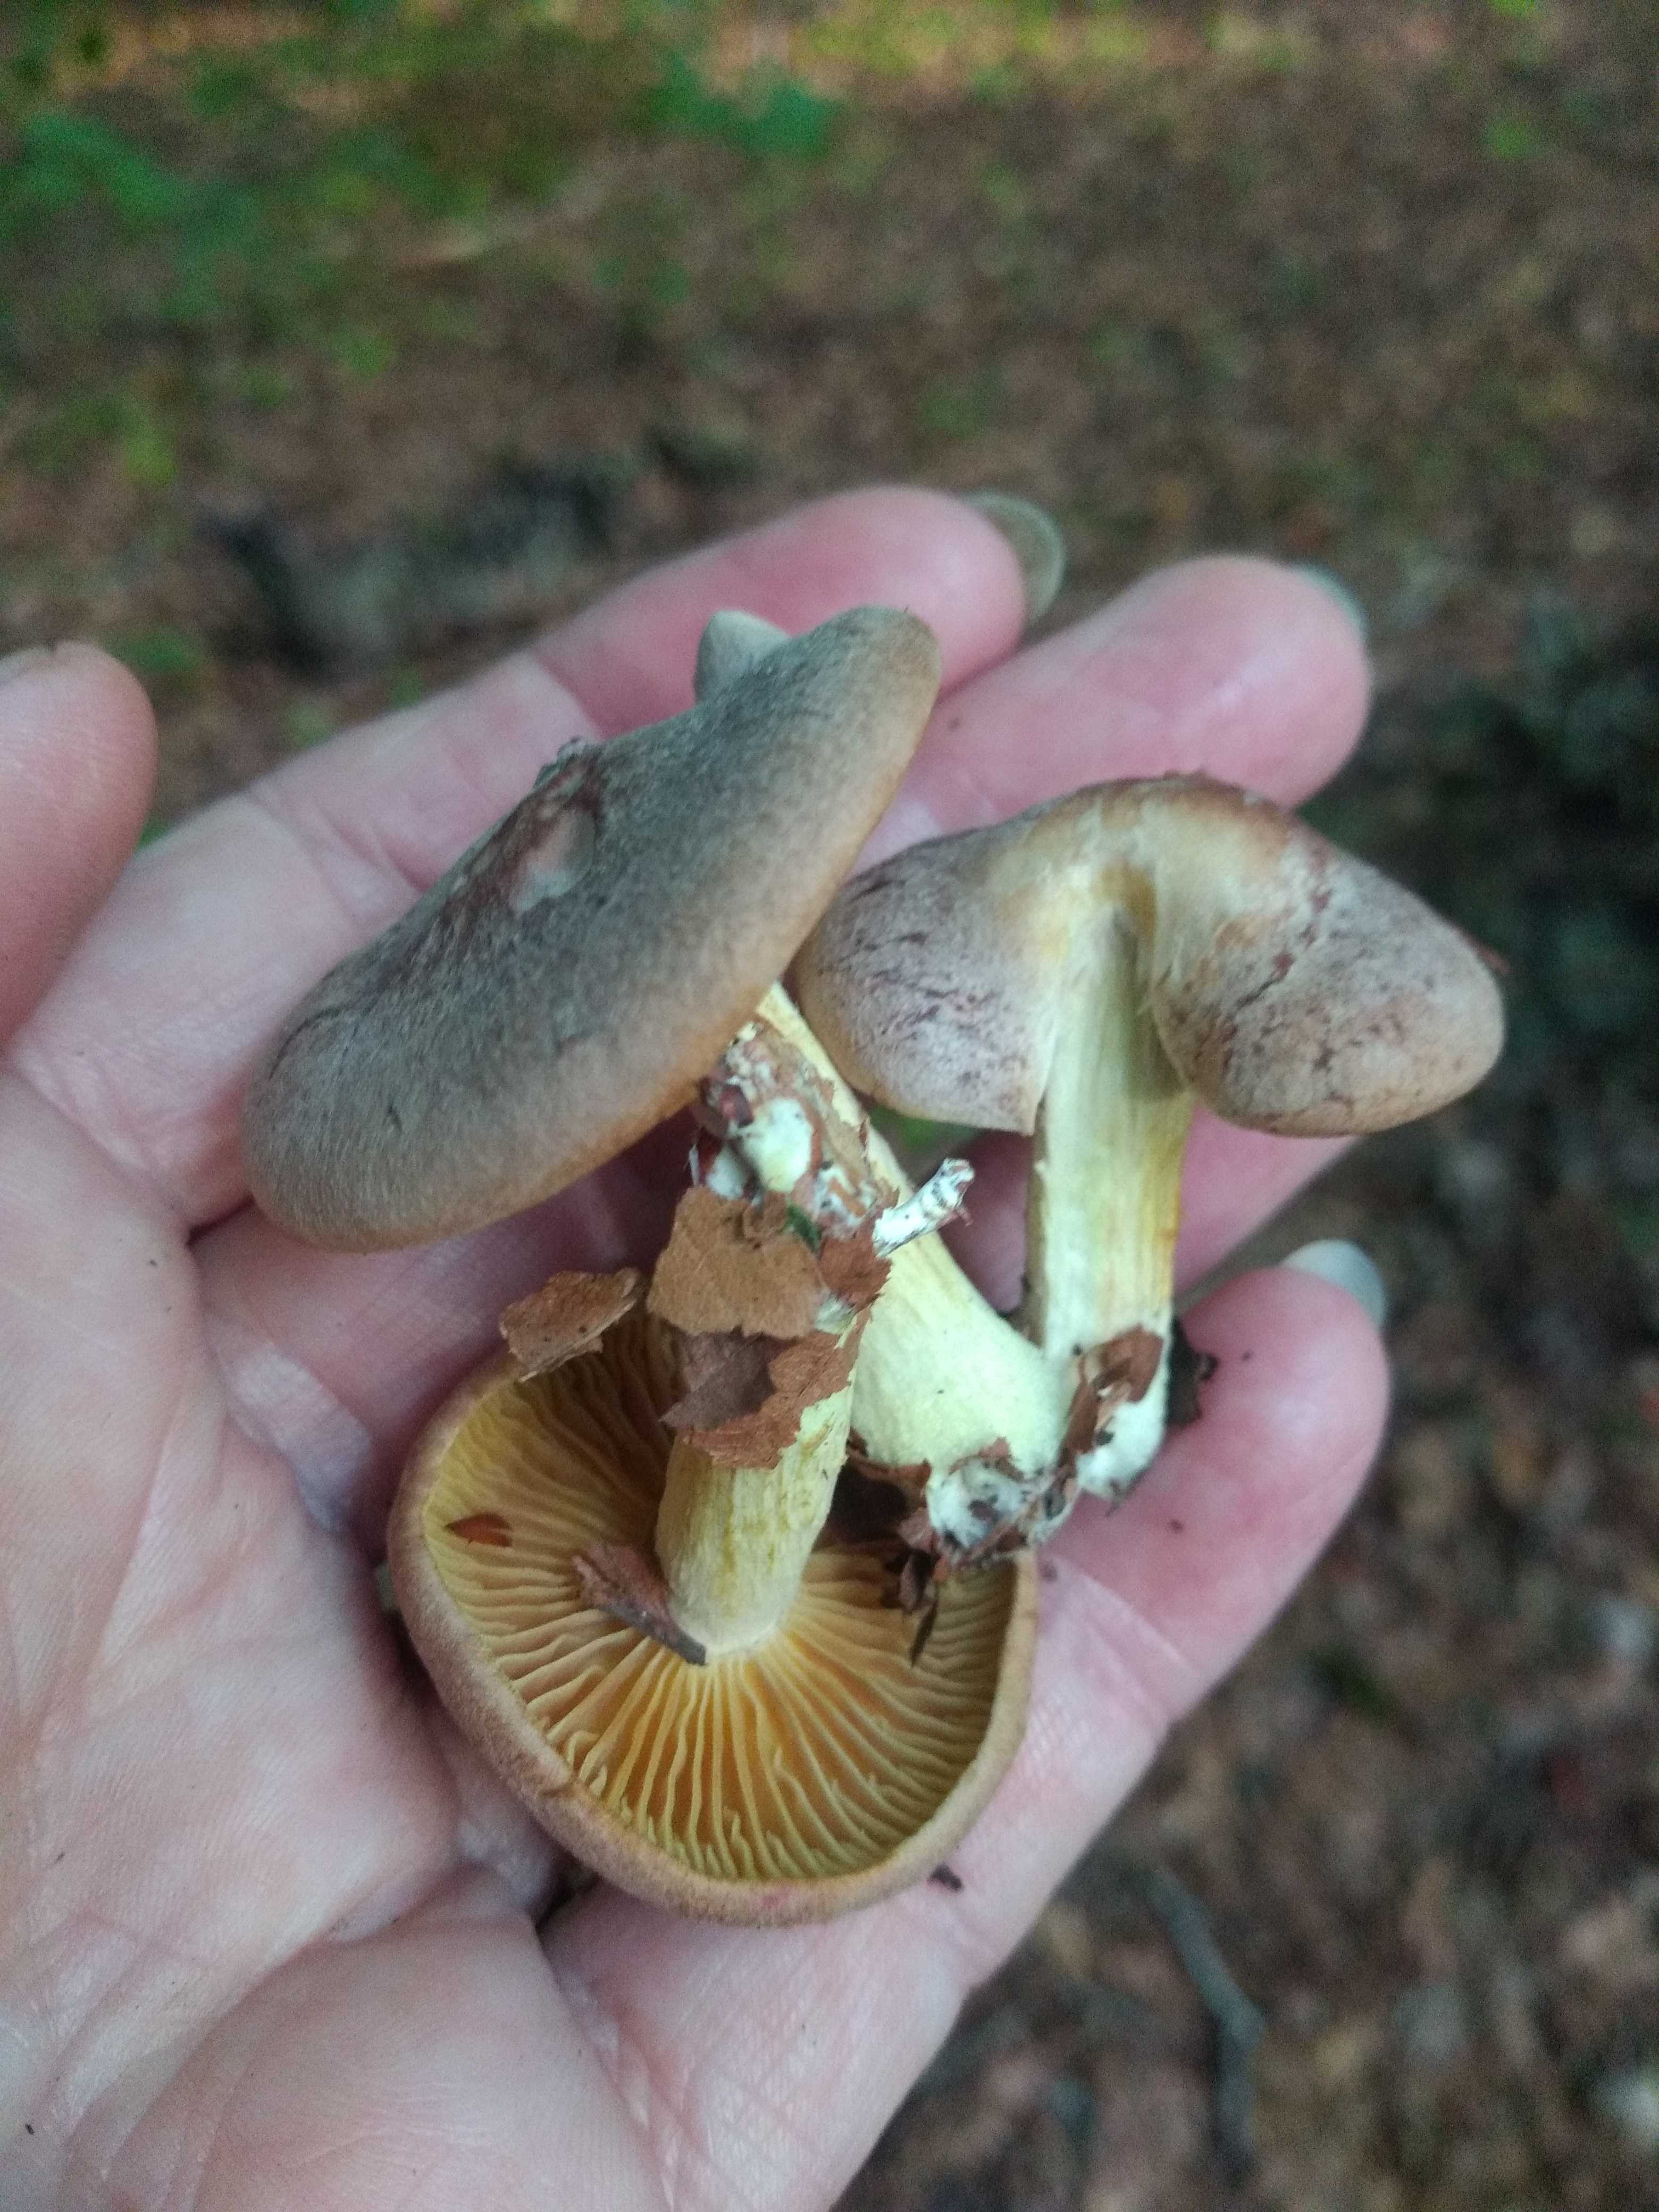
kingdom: Fungi
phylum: Basidiomycota
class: Agaricomycetes
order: Agaricales
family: Omphalotaceae
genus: Collybiopsis
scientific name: Collybiopsis peronata
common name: bestøvlet fladhat
